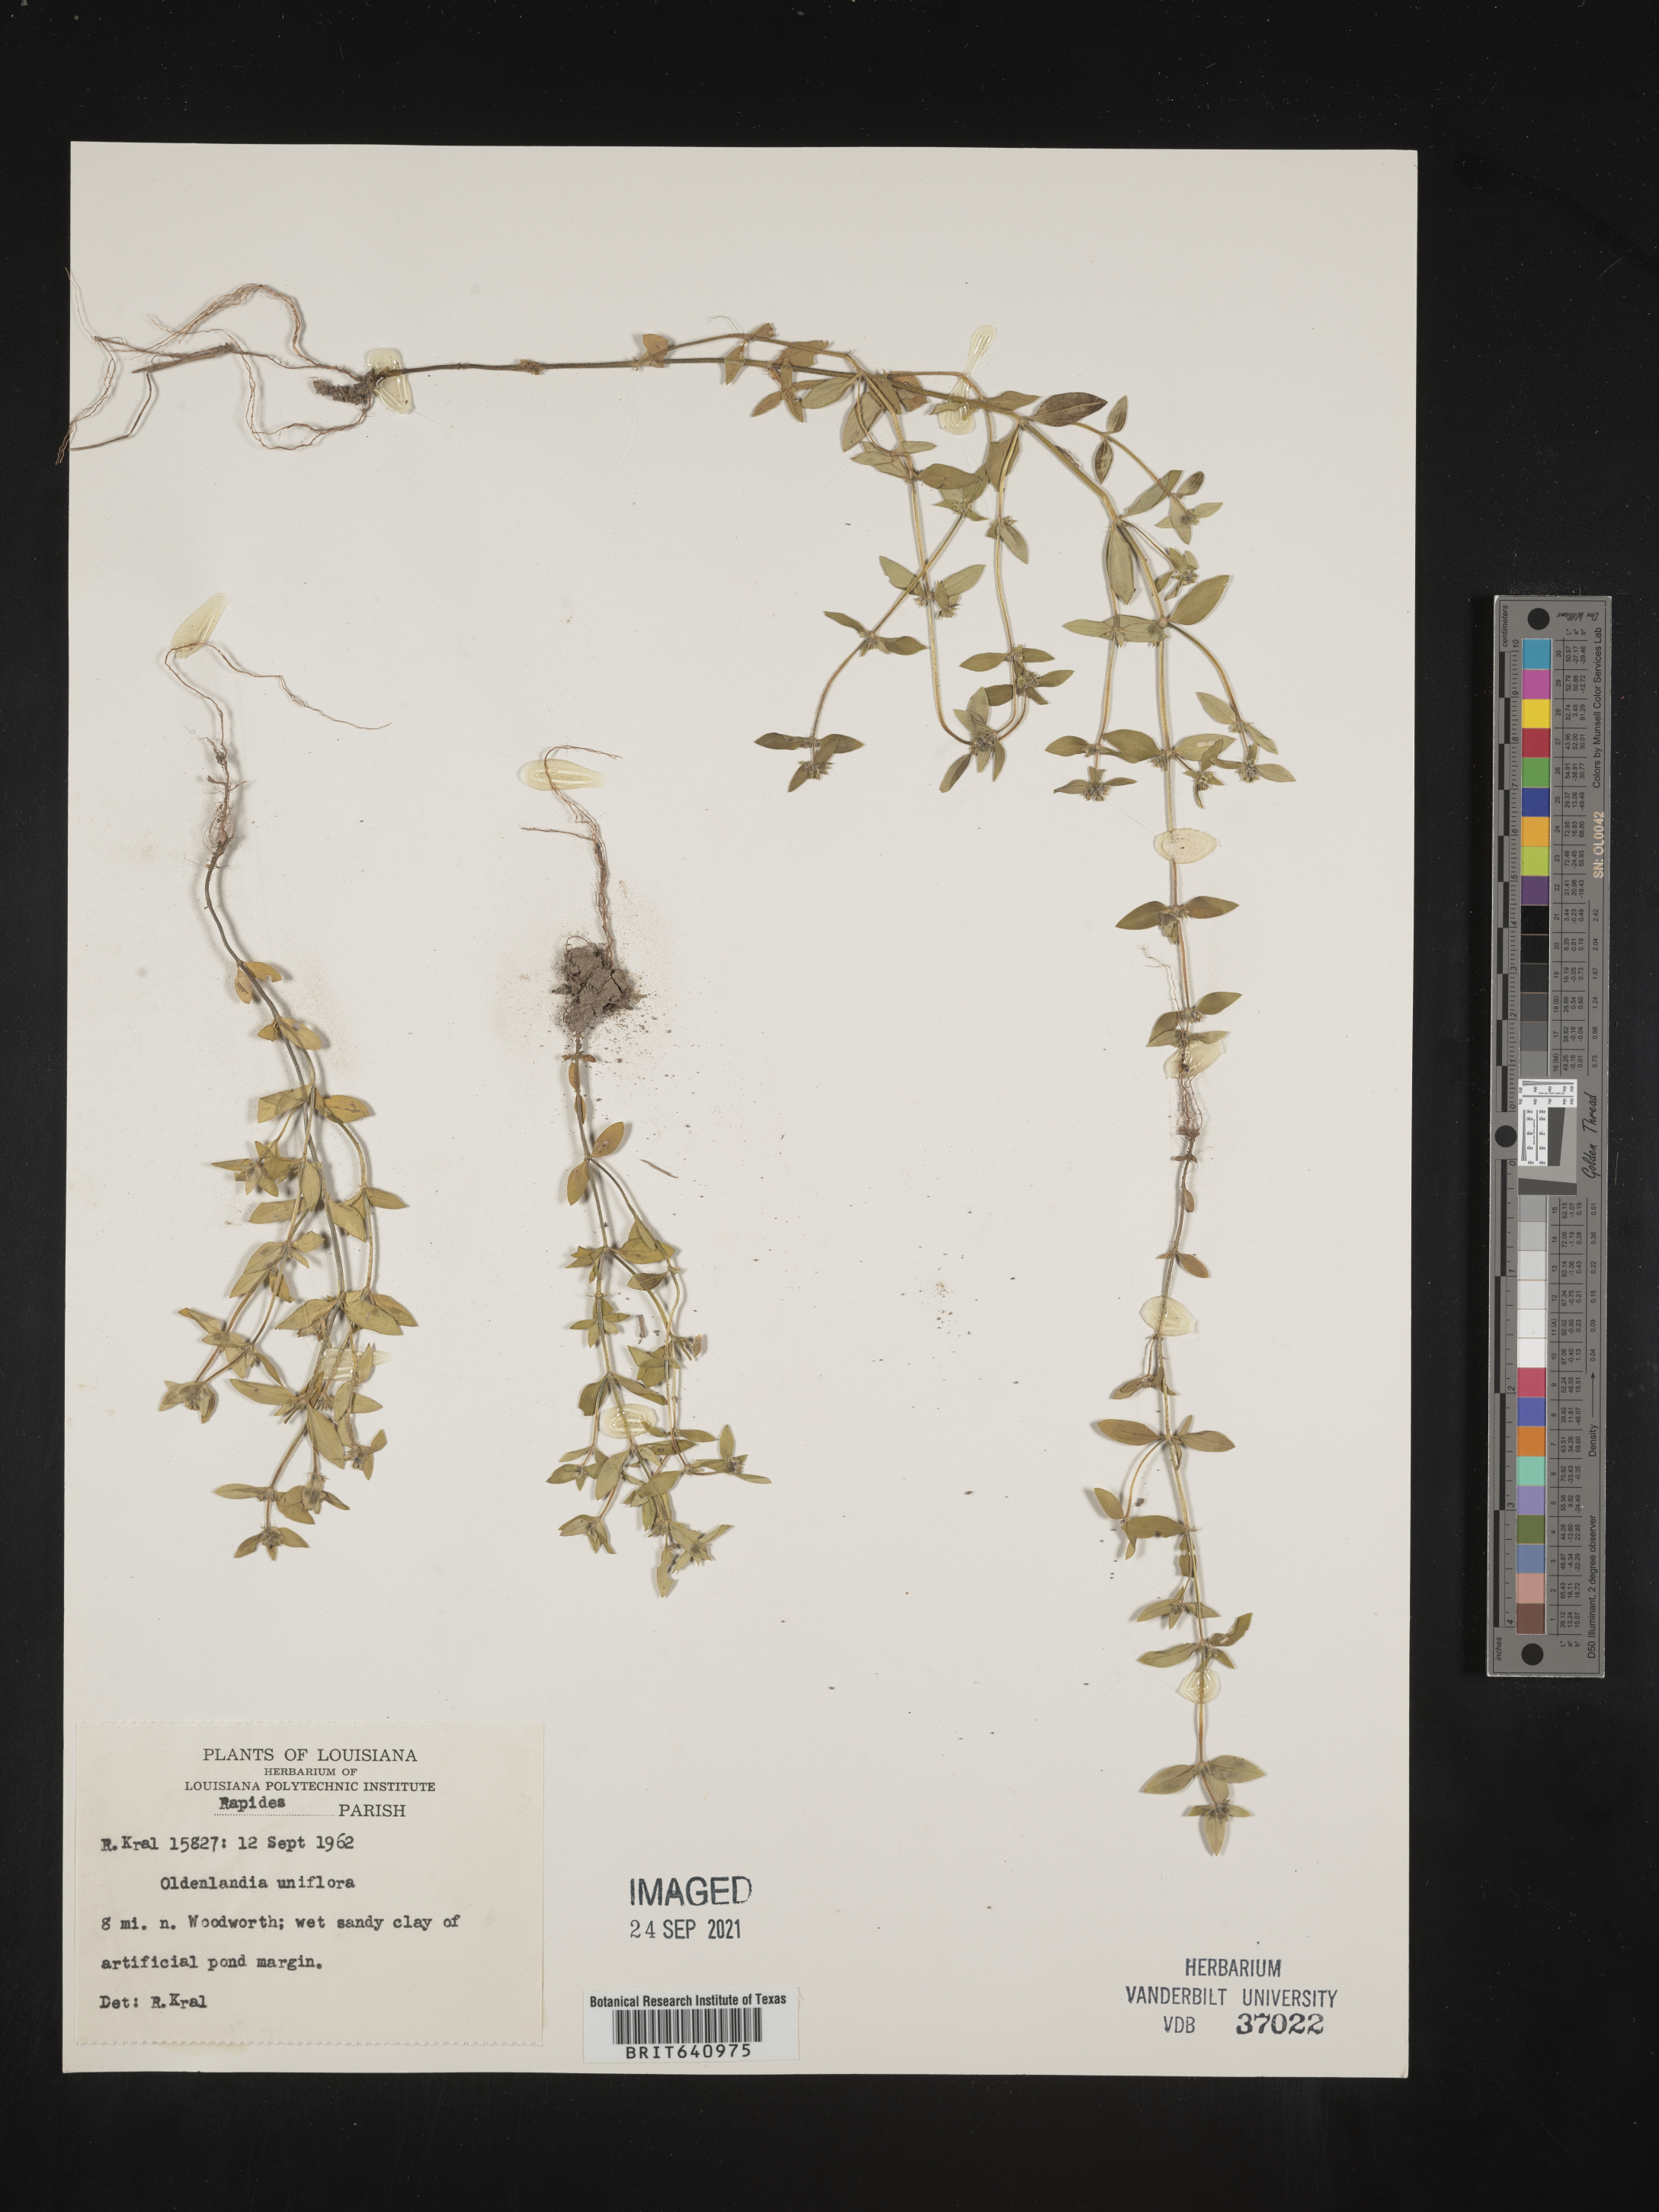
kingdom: Plantae
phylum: Tracheophyta
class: Magnoliopsida
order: Gentianales
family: Rubiaceae
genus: Edrastima
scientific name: Edrastima uniflora
